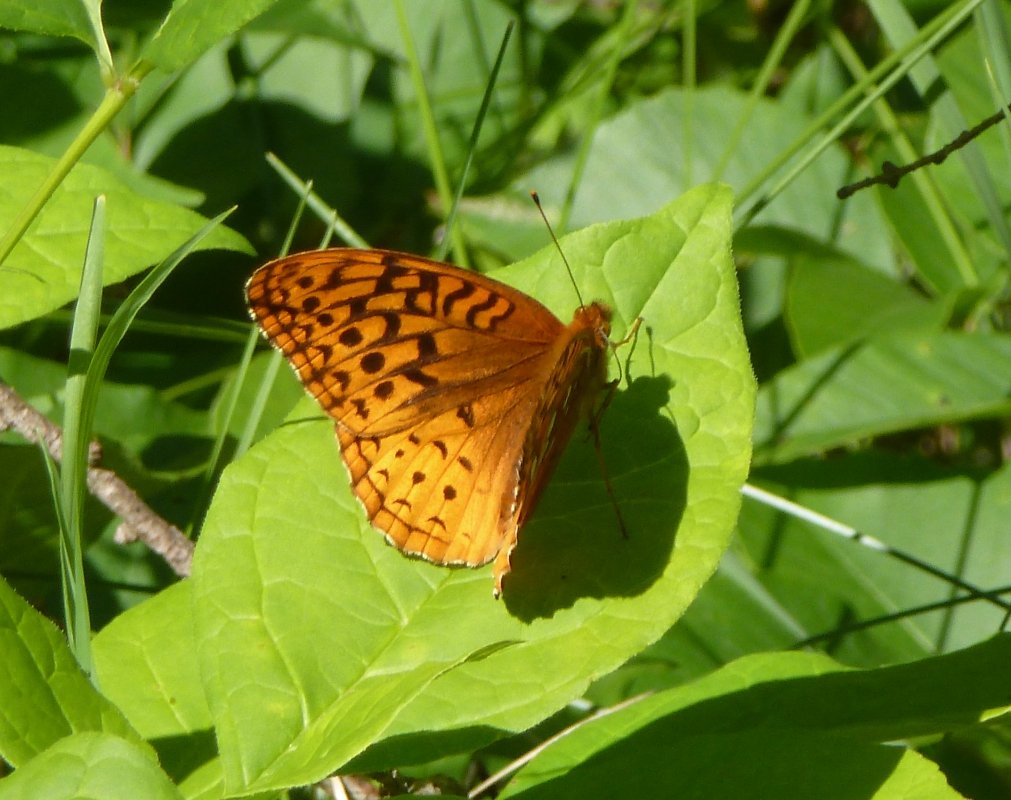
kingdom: Animalia
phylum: Arthropoda
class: Insecta
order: Lepidoptera
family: Nymphalidae
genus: Speyeria
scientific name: Speyeria cybele
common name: Great Spangled Fritillary
